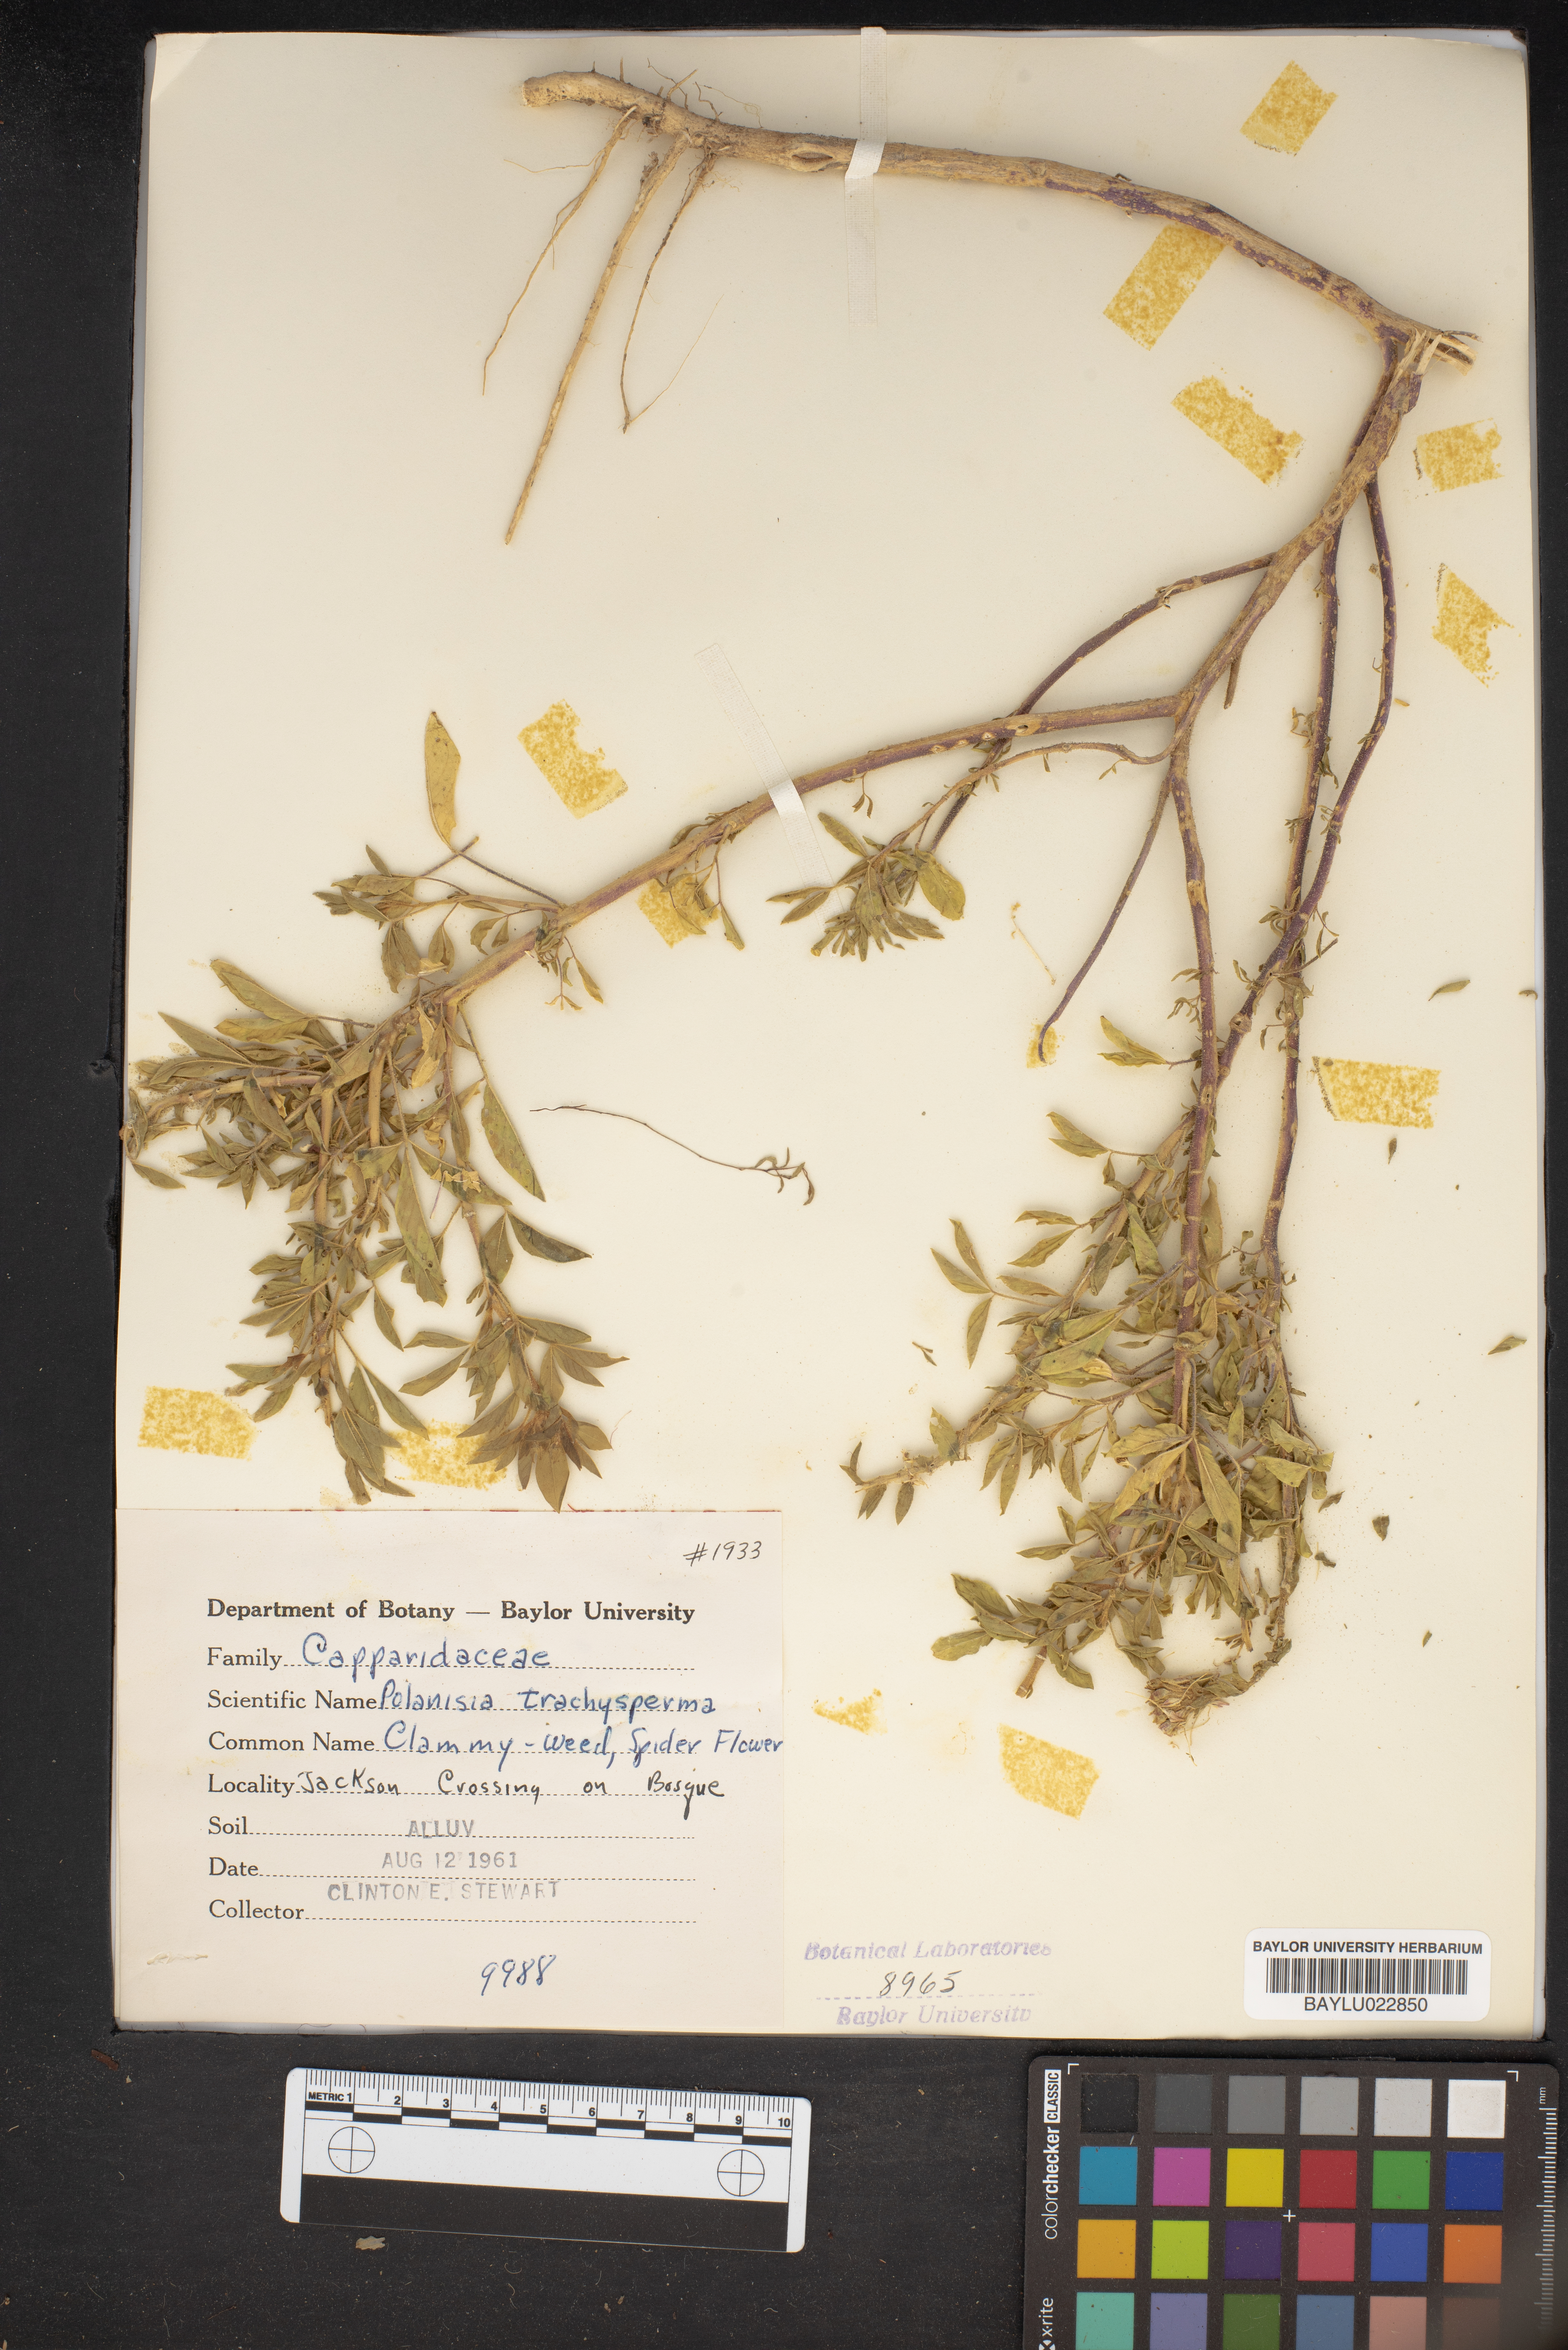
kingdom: Plantae
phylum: Tracheophyta
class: Magnoliopsida
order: Brassicales
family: Cleomaceae
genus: Polanisia
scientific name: Polanisia trachysperma
